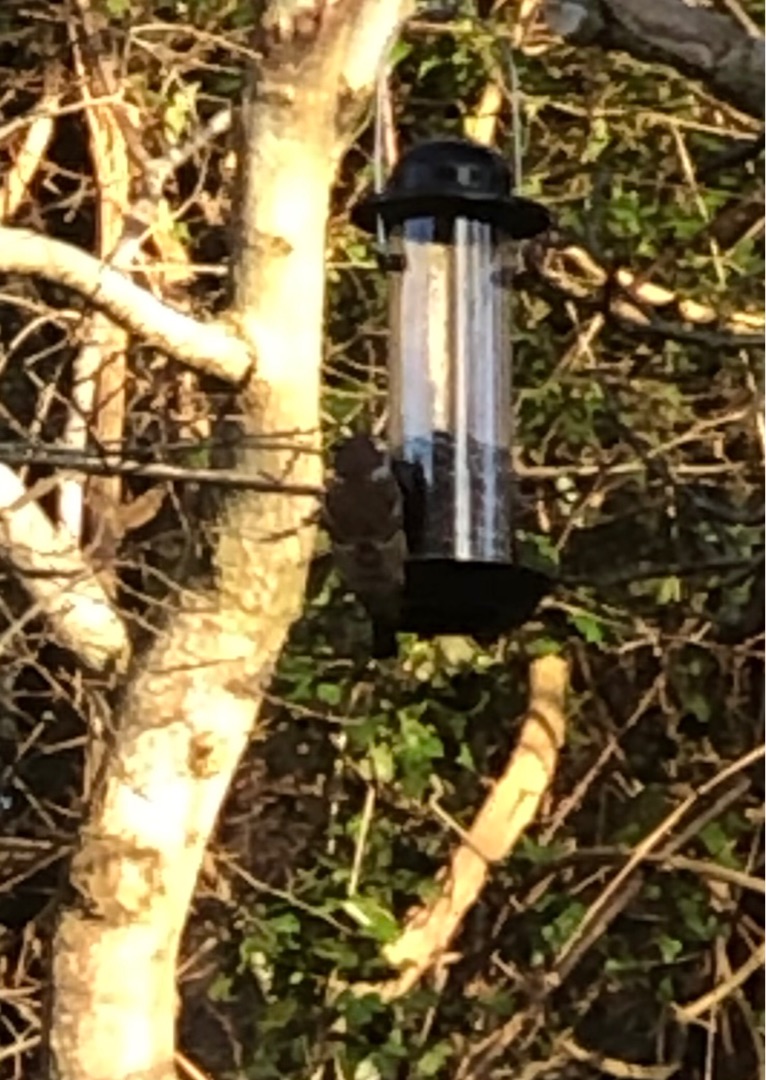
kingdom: Animalia
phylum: Chordata
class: Aves
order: Passeriformes
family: Passeridae
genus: Passer
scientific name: Passer montanus
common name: Skovspurv
